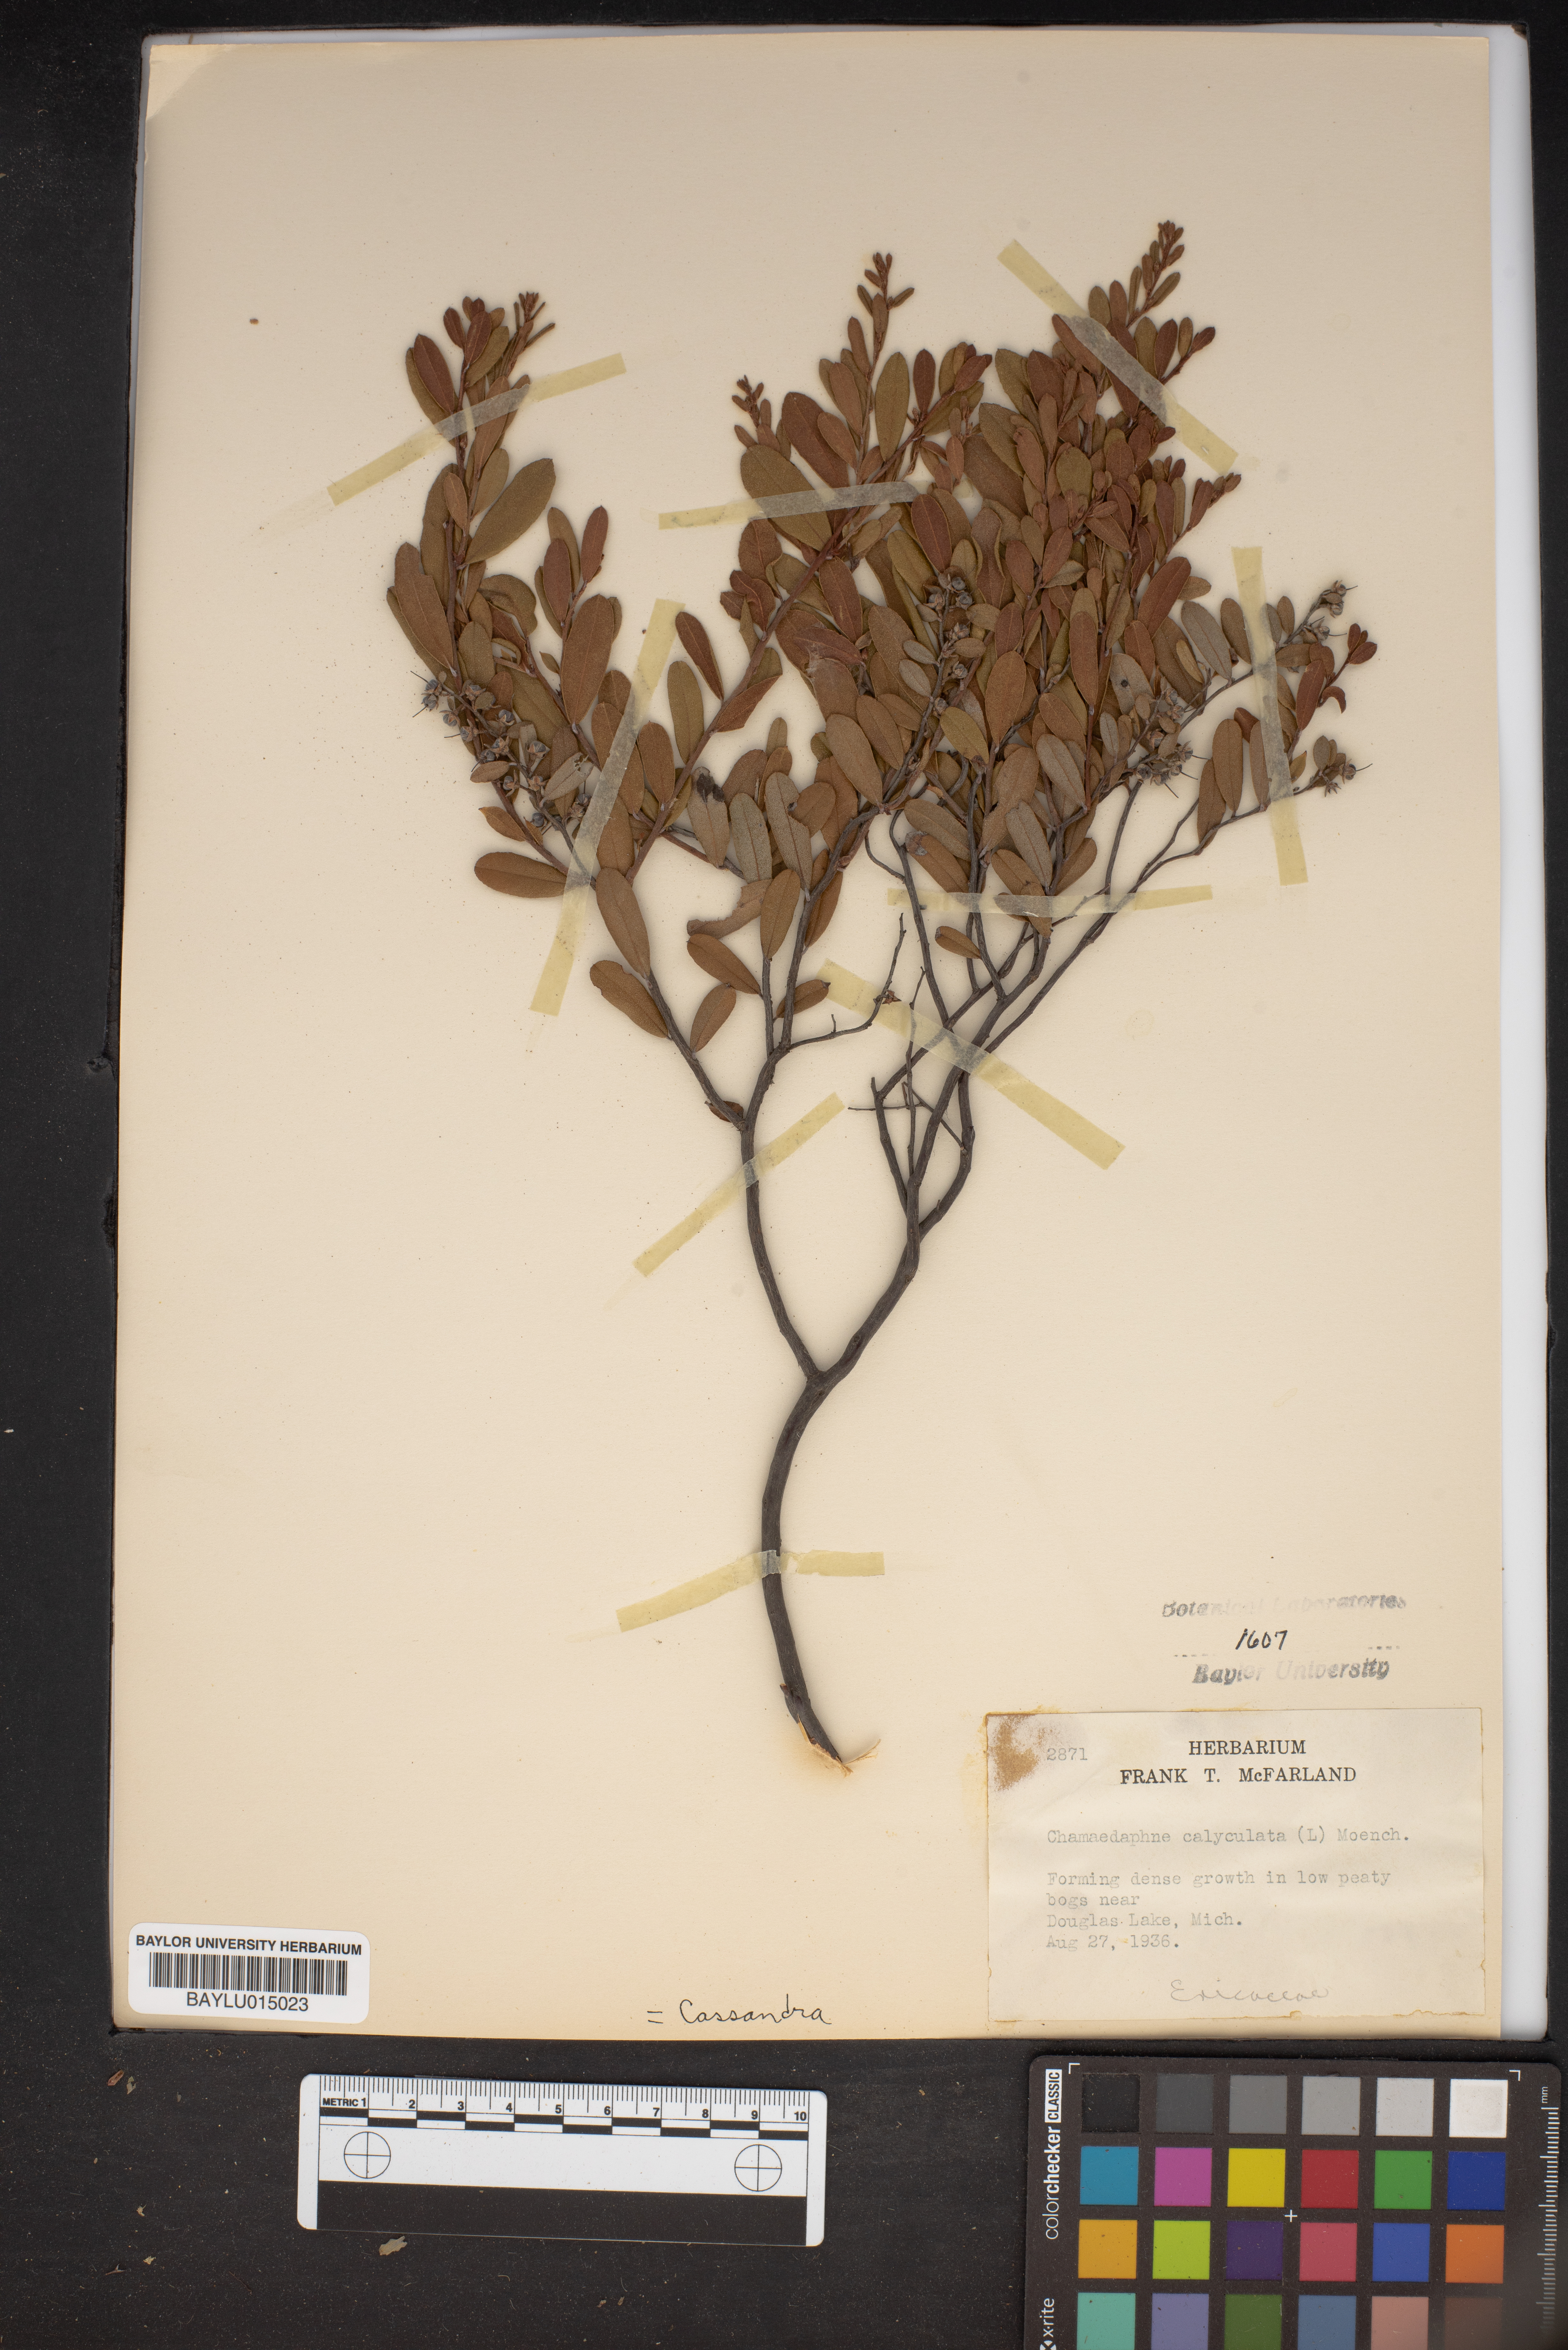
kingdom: Plantae
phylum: Tracheophyta
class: Magnoliopsida
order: Ericales
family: Ericaceae
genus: Chamaedaphne
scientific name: Chamaedaphne calyculata
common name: Leatherleaf
